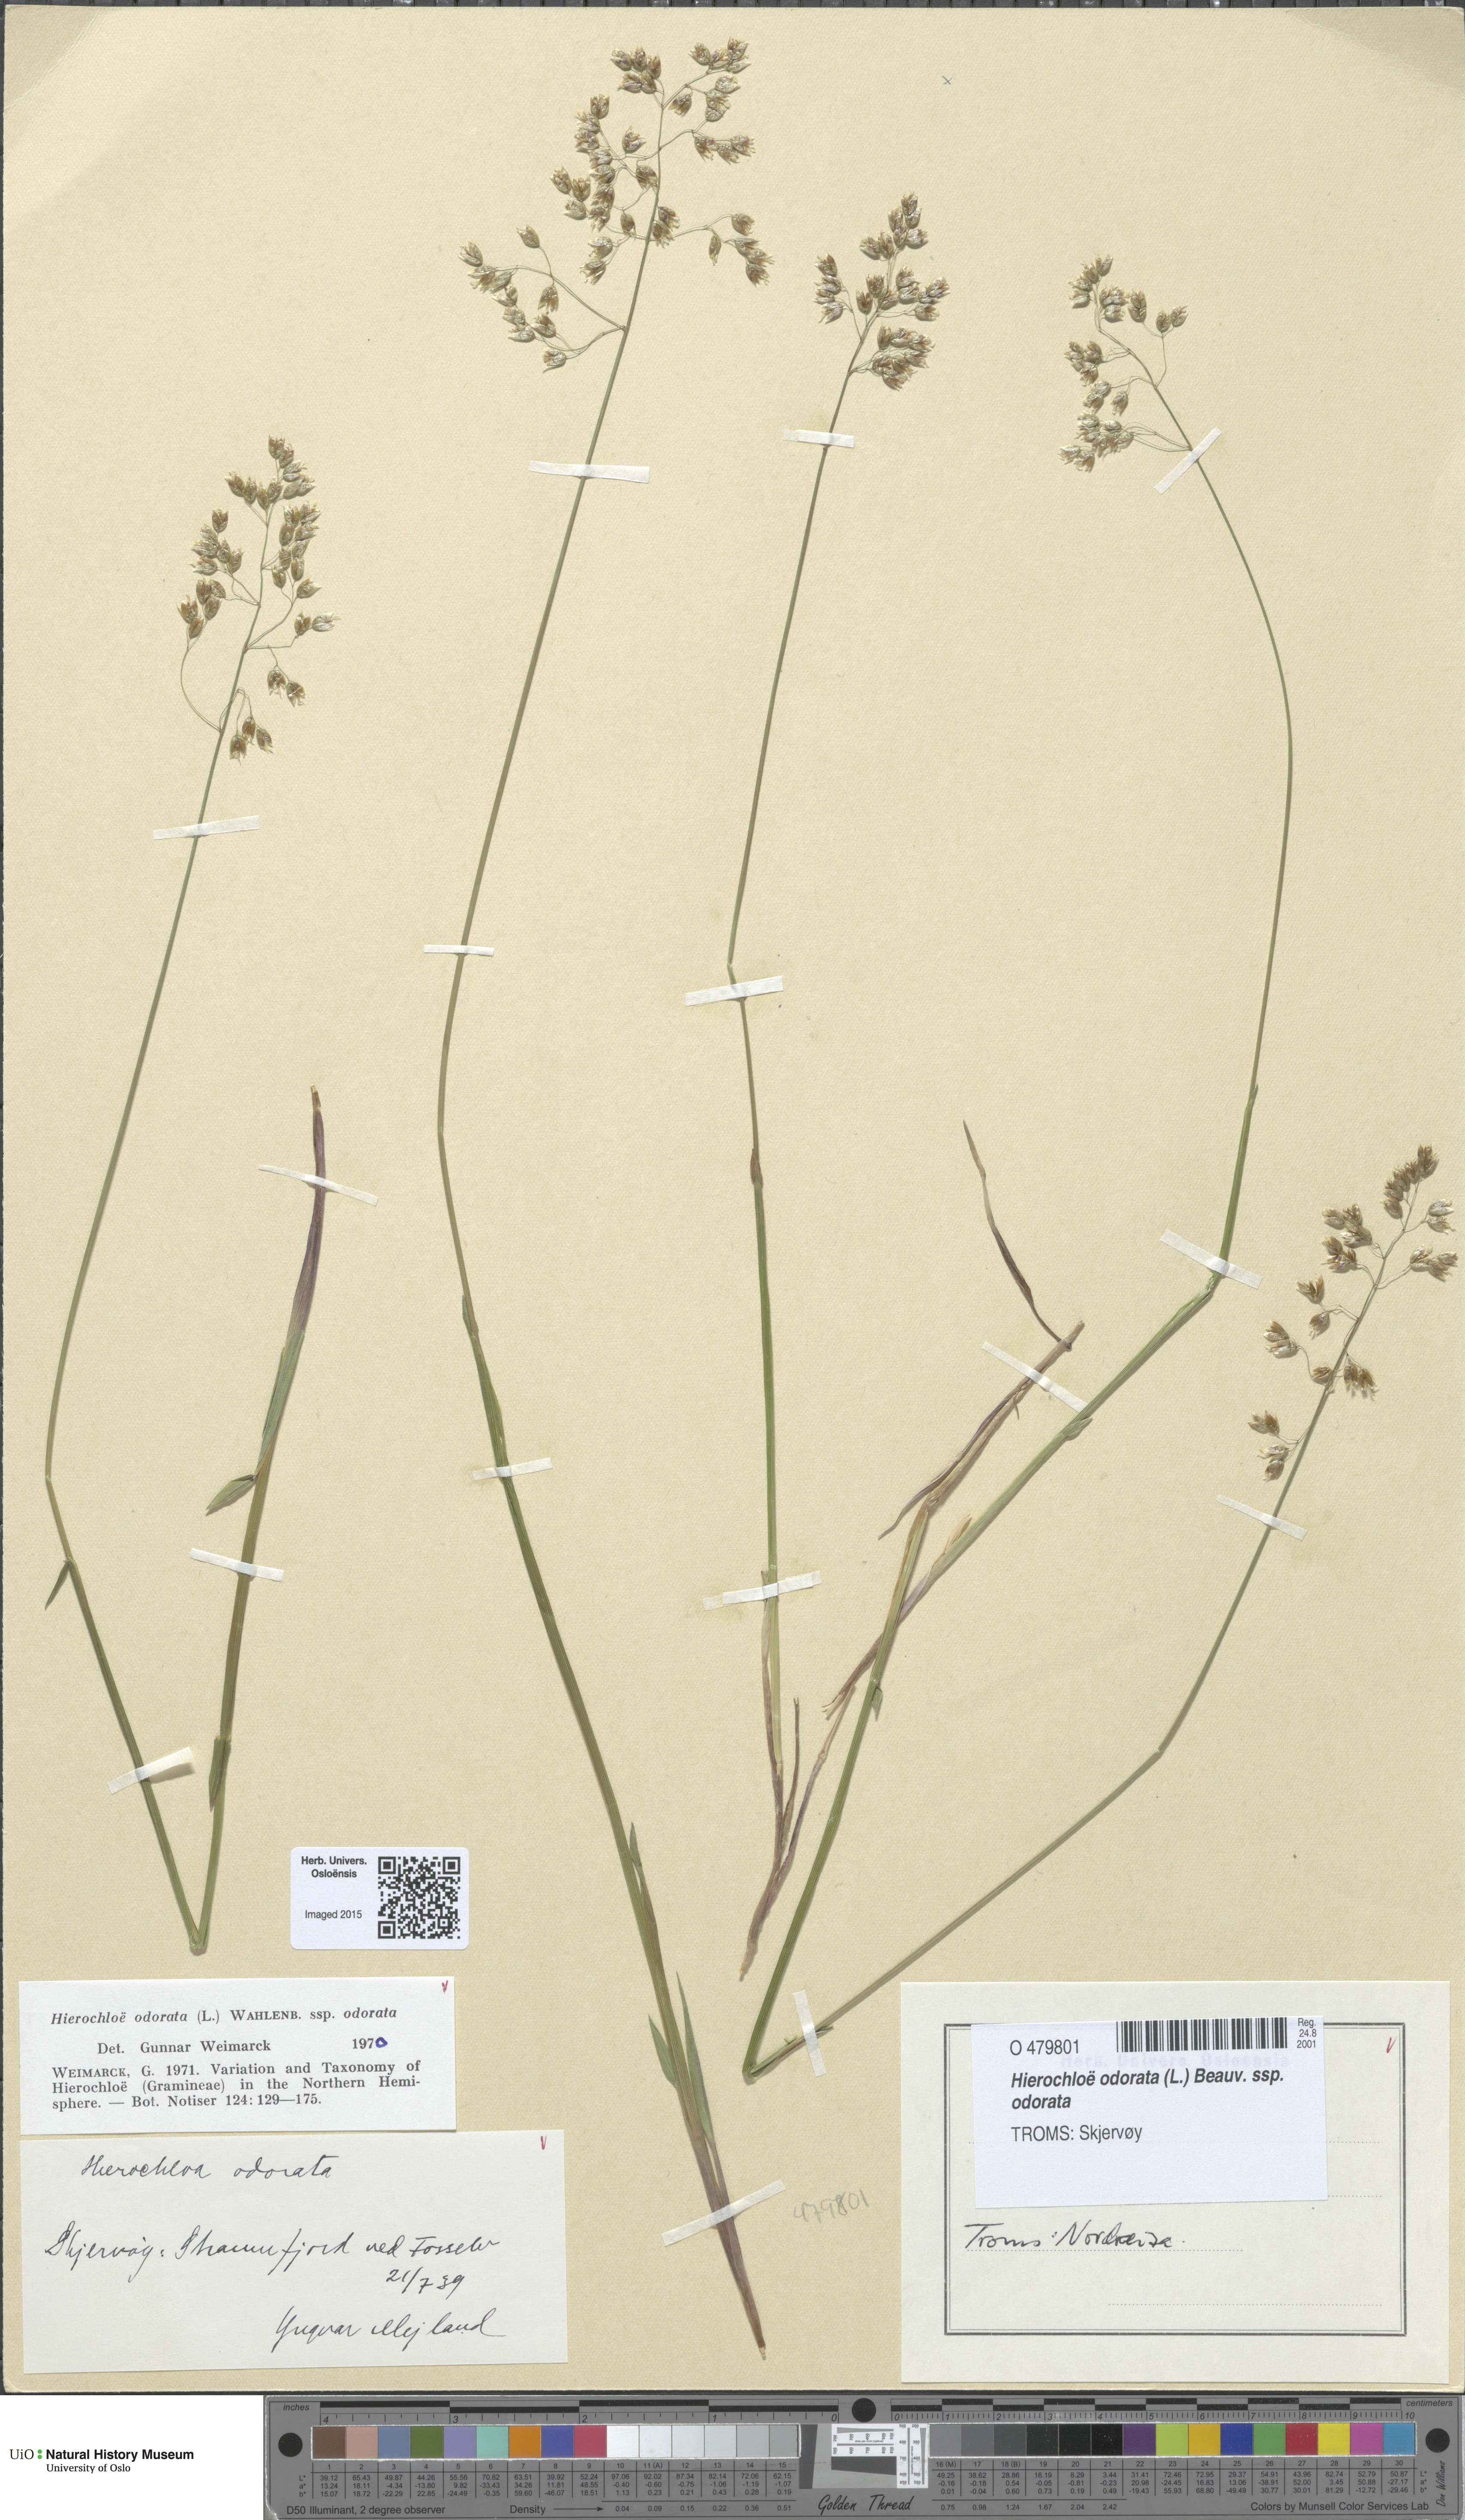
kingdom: Plantae
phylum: Tracheophyta
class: Liliopsida
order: Poales
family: Poaceae
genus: Anthoxanthum
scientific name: Anthoxanthum nitens
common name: Holy grass
